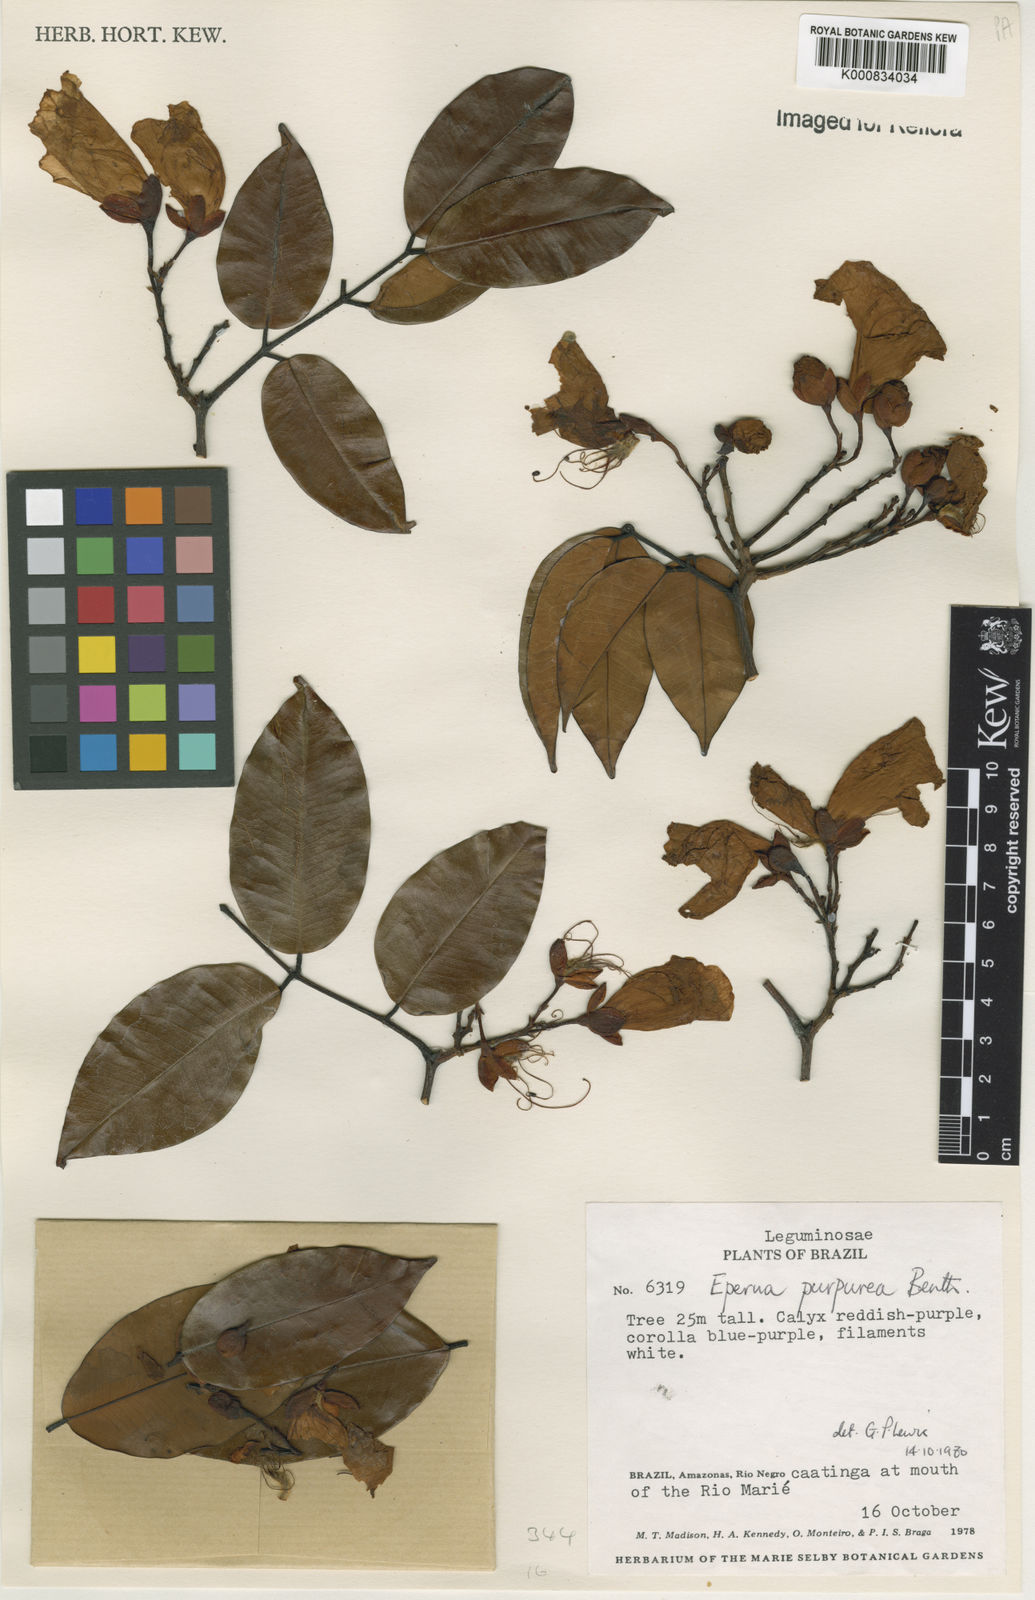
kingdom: Plantae
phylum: Tracheophyta
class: Magnoliopsida
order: Fabales
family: Fabaceae
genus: Eperua
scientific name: Eperua purpurea
